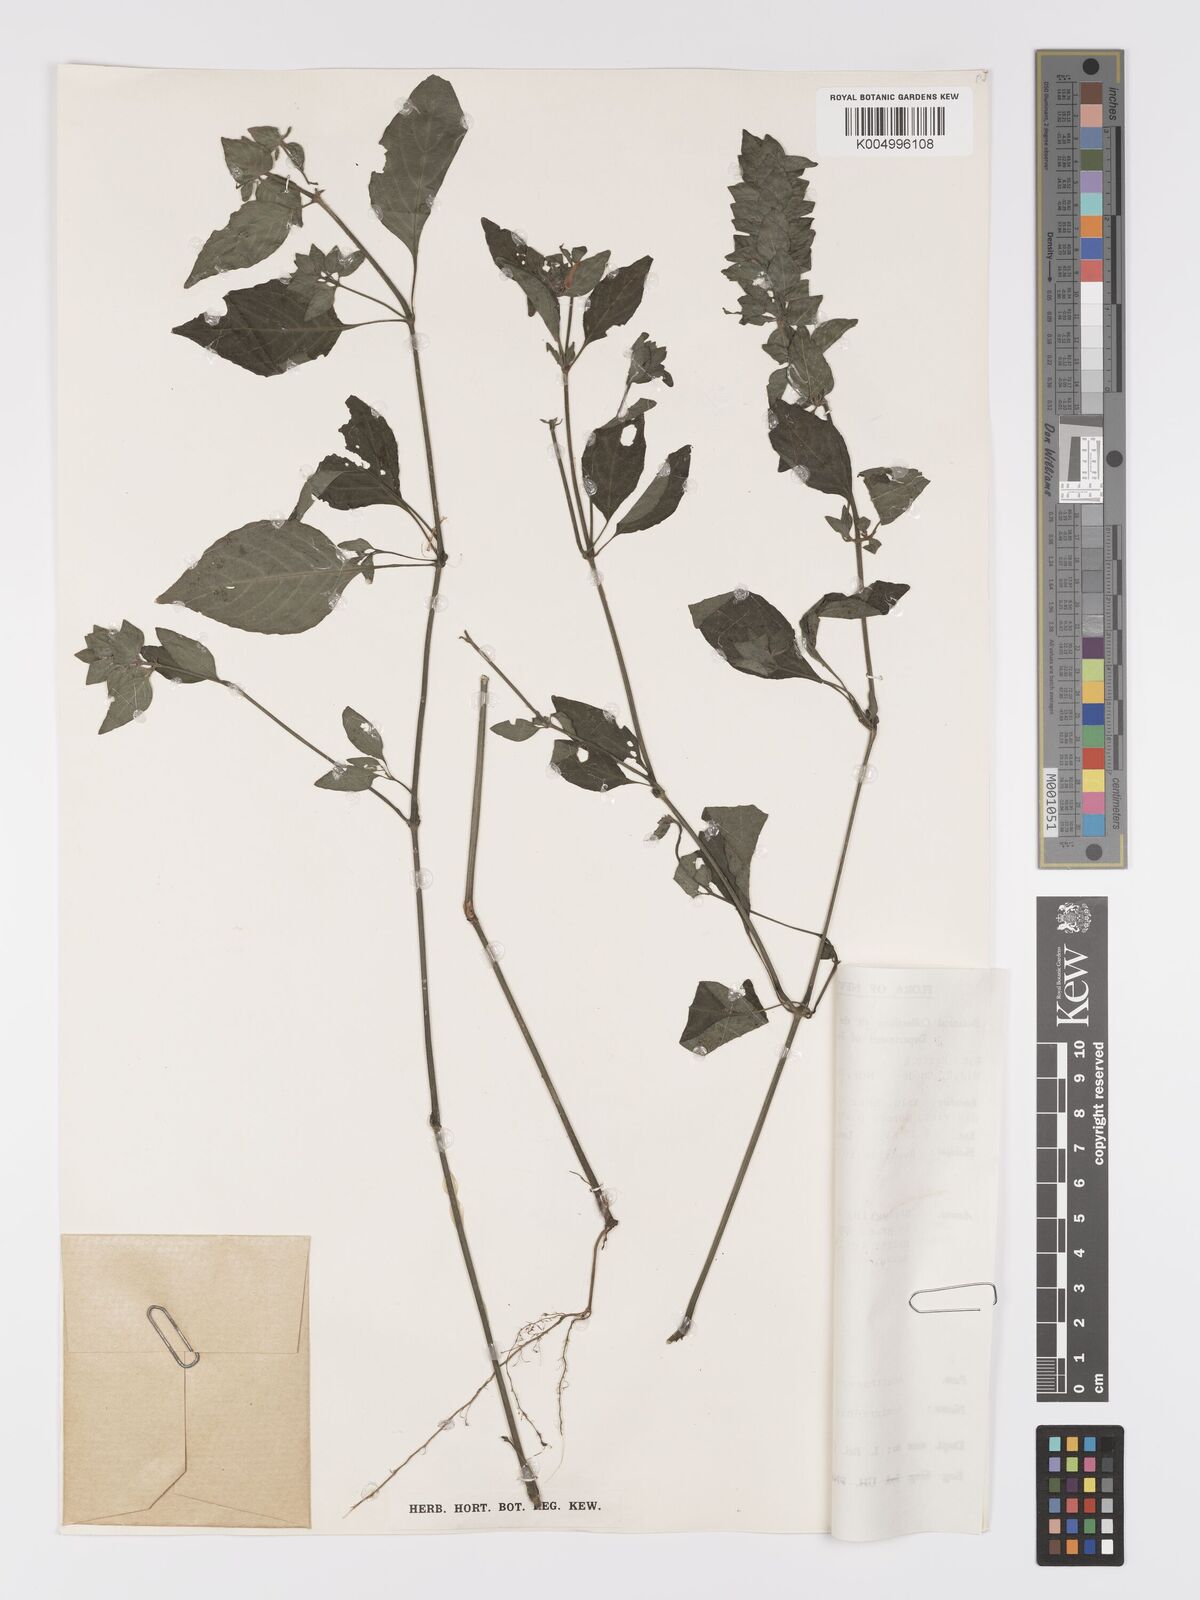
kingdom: Plantae
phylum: Tracheophyta
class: Magnoliopsida
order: Lamiales
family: Acanthaceae
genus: Ruellia
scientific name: Ruellia blechum
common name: Browne's blechum
